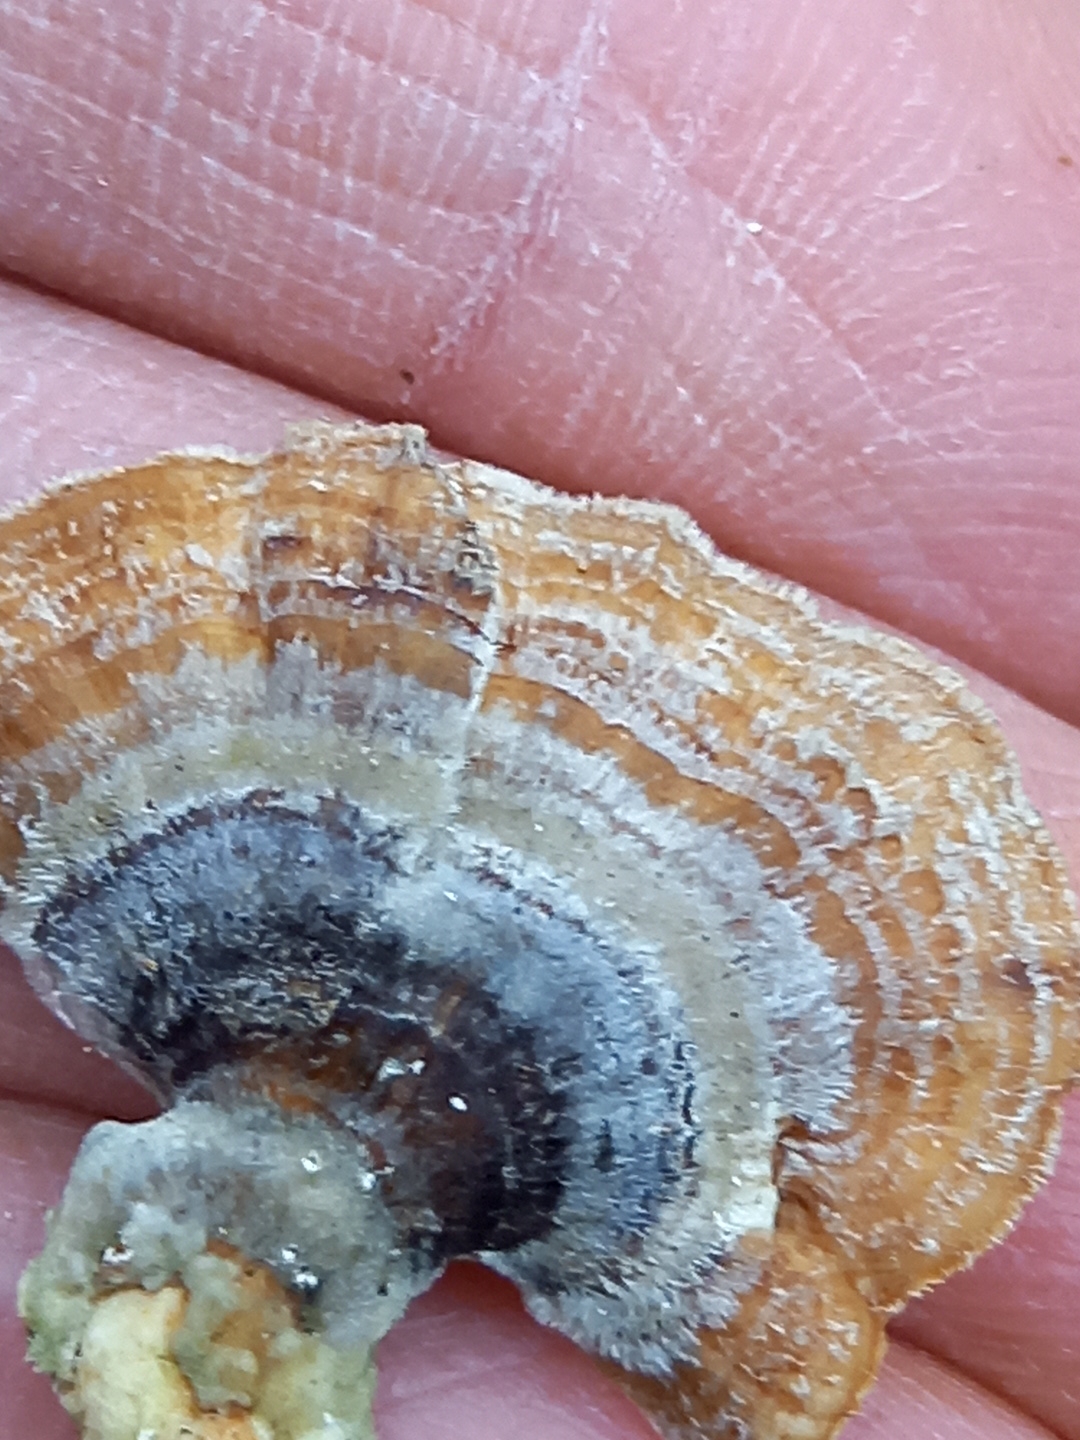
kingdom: Fungi
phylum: Basidiomycota
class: Agaricomycetes
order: Polyporales
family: Polyporaceae
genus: Trametes
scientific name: Trametes versicolor
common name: broget læderporesvamp
